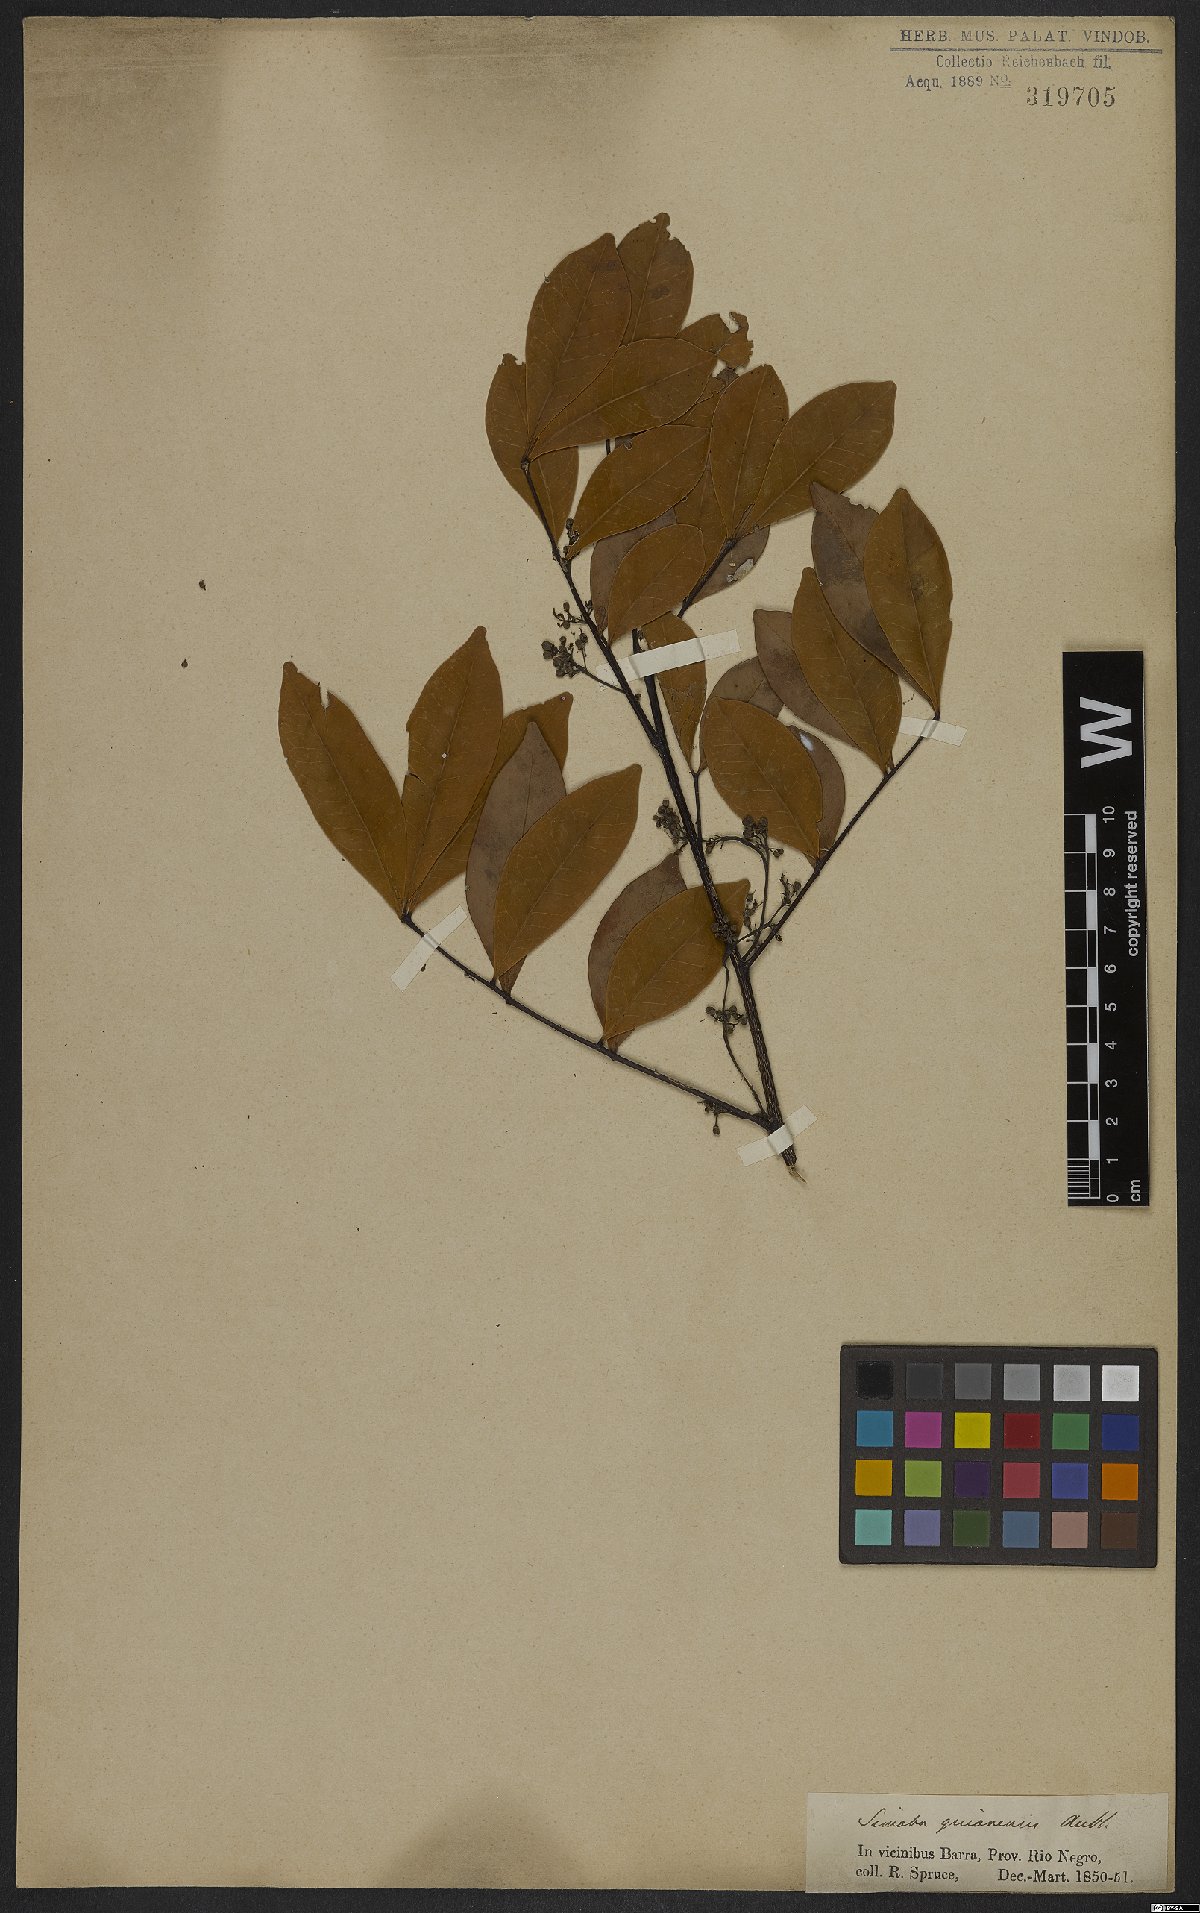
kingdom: Plantae
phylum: Tracheophyta
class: Magnoliopsida
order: Sapindales
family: Simaroubaceae
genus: Simaba
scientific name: Simaba guianensis
